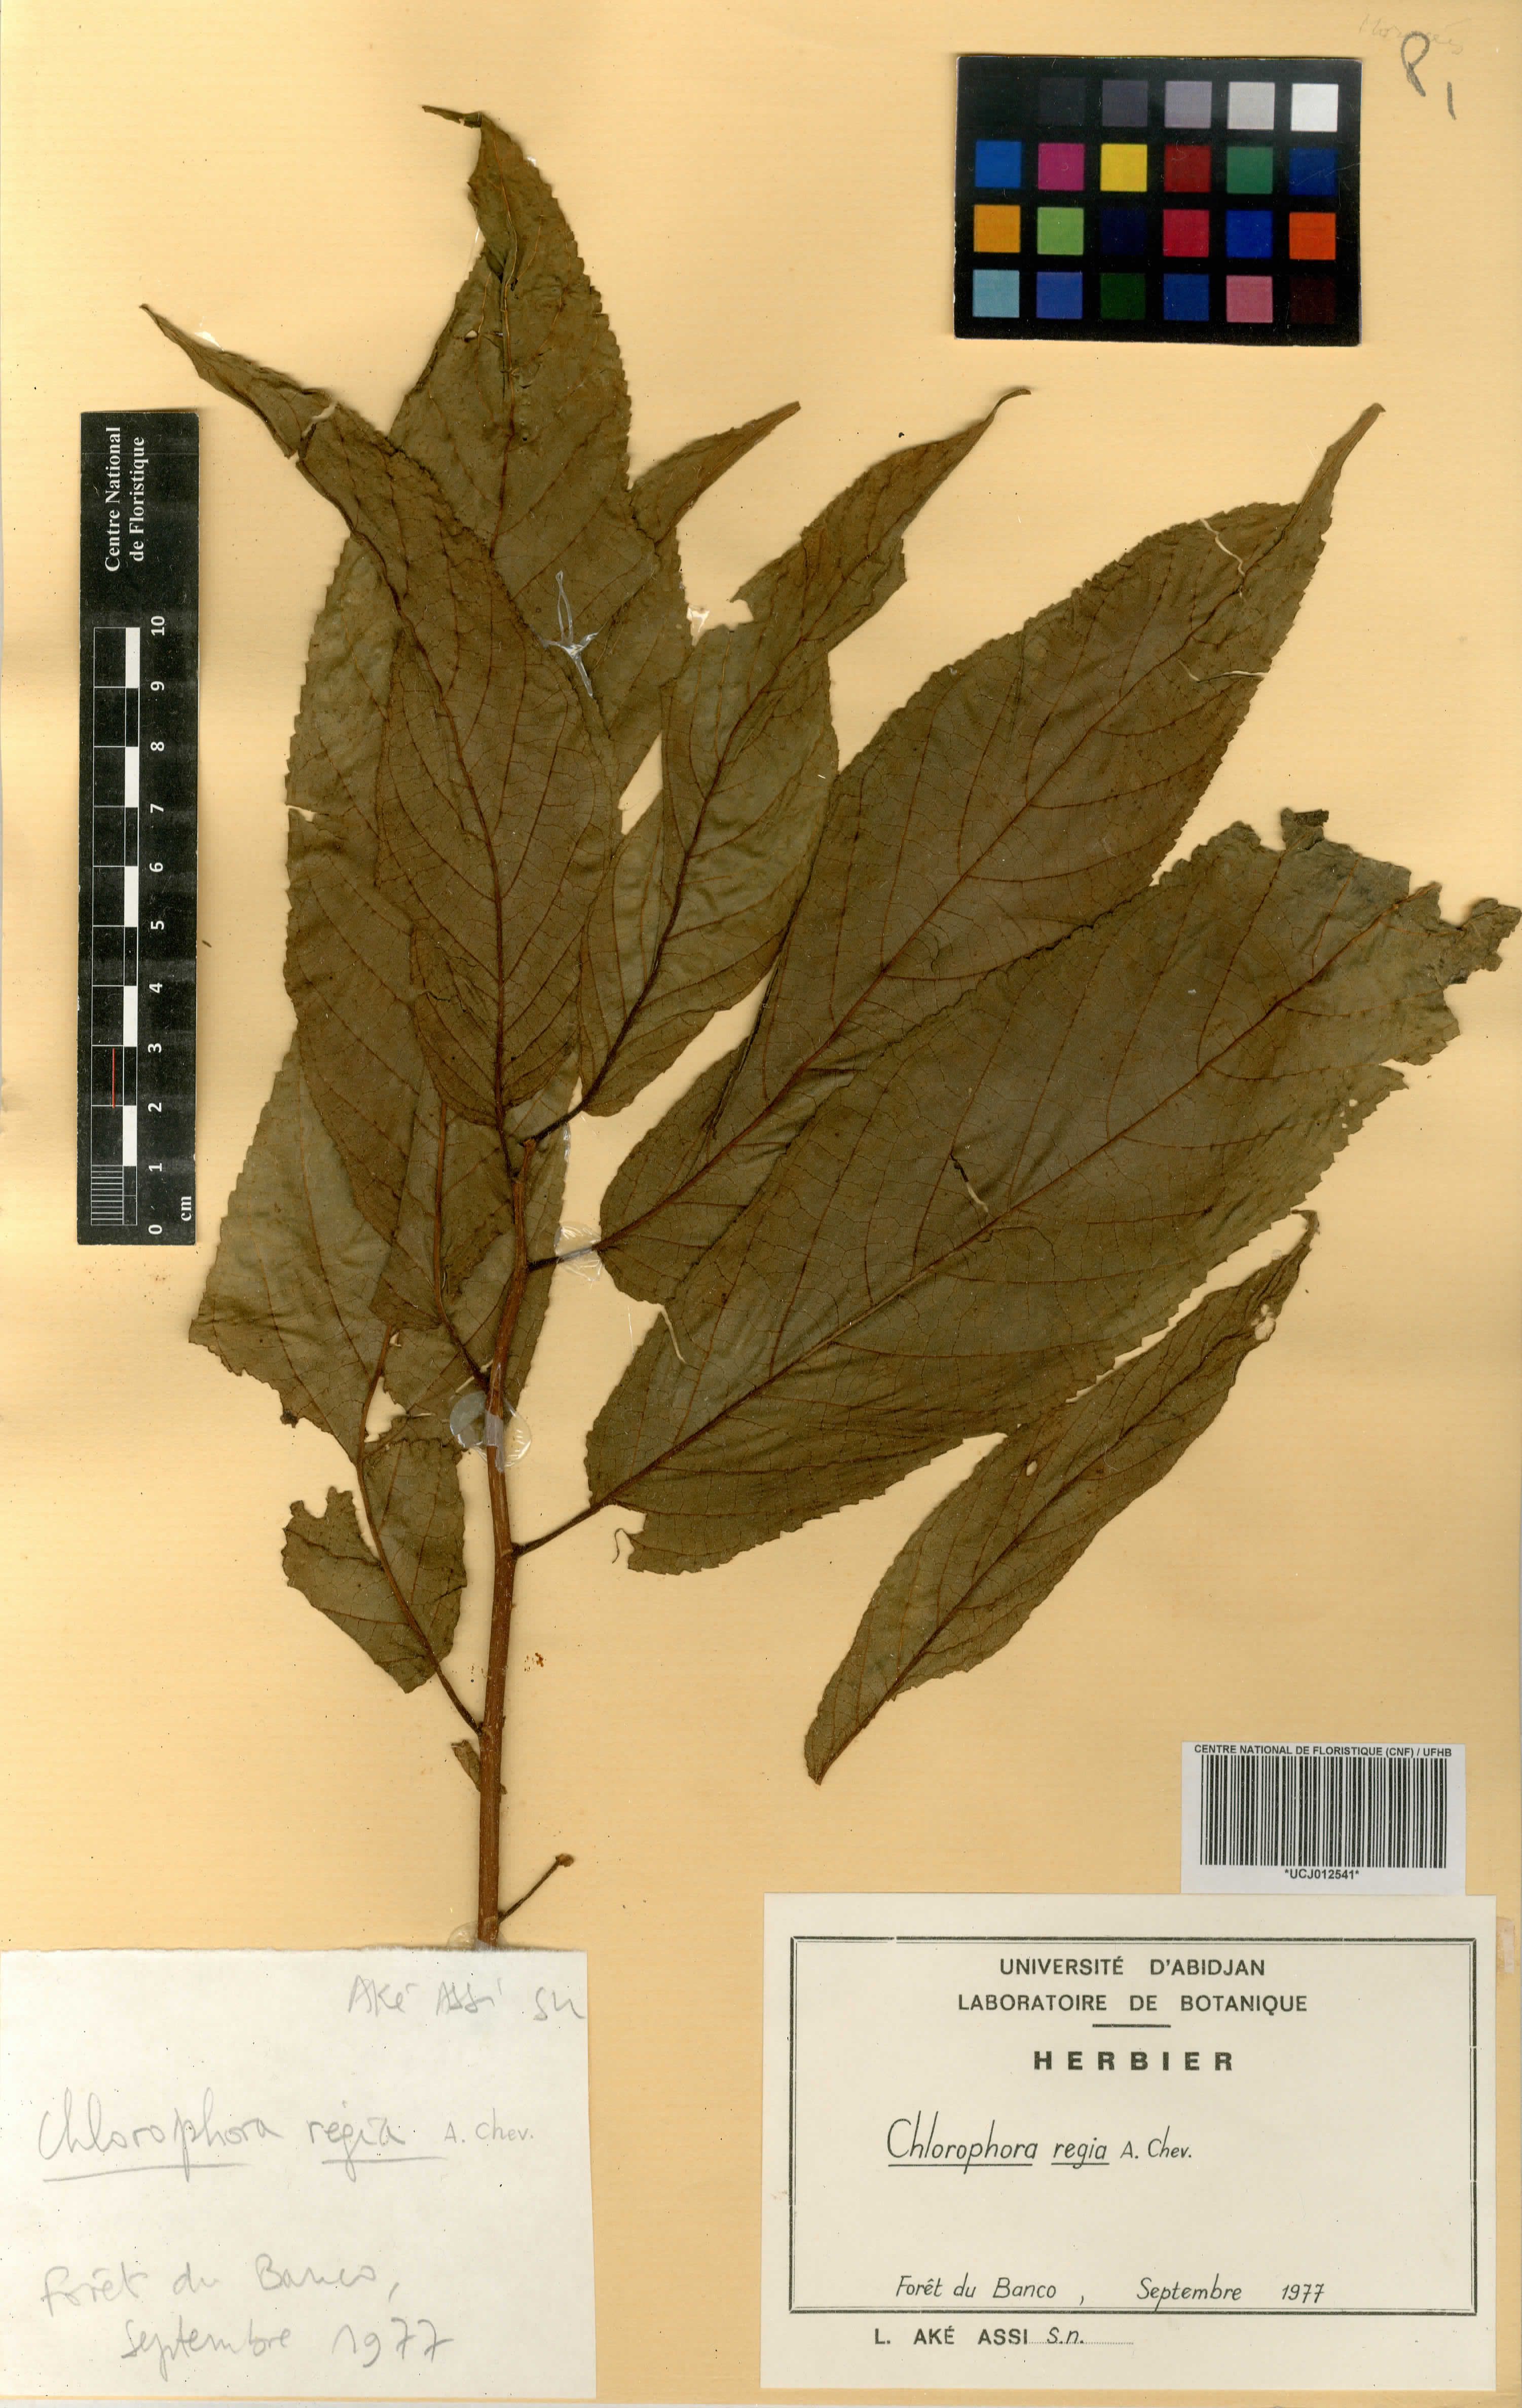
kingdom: Plantae
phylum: Tracheophyta
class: Magnoliopsida
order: Rosales
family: Moraceae
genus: Milicia
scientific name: Milicia regia
